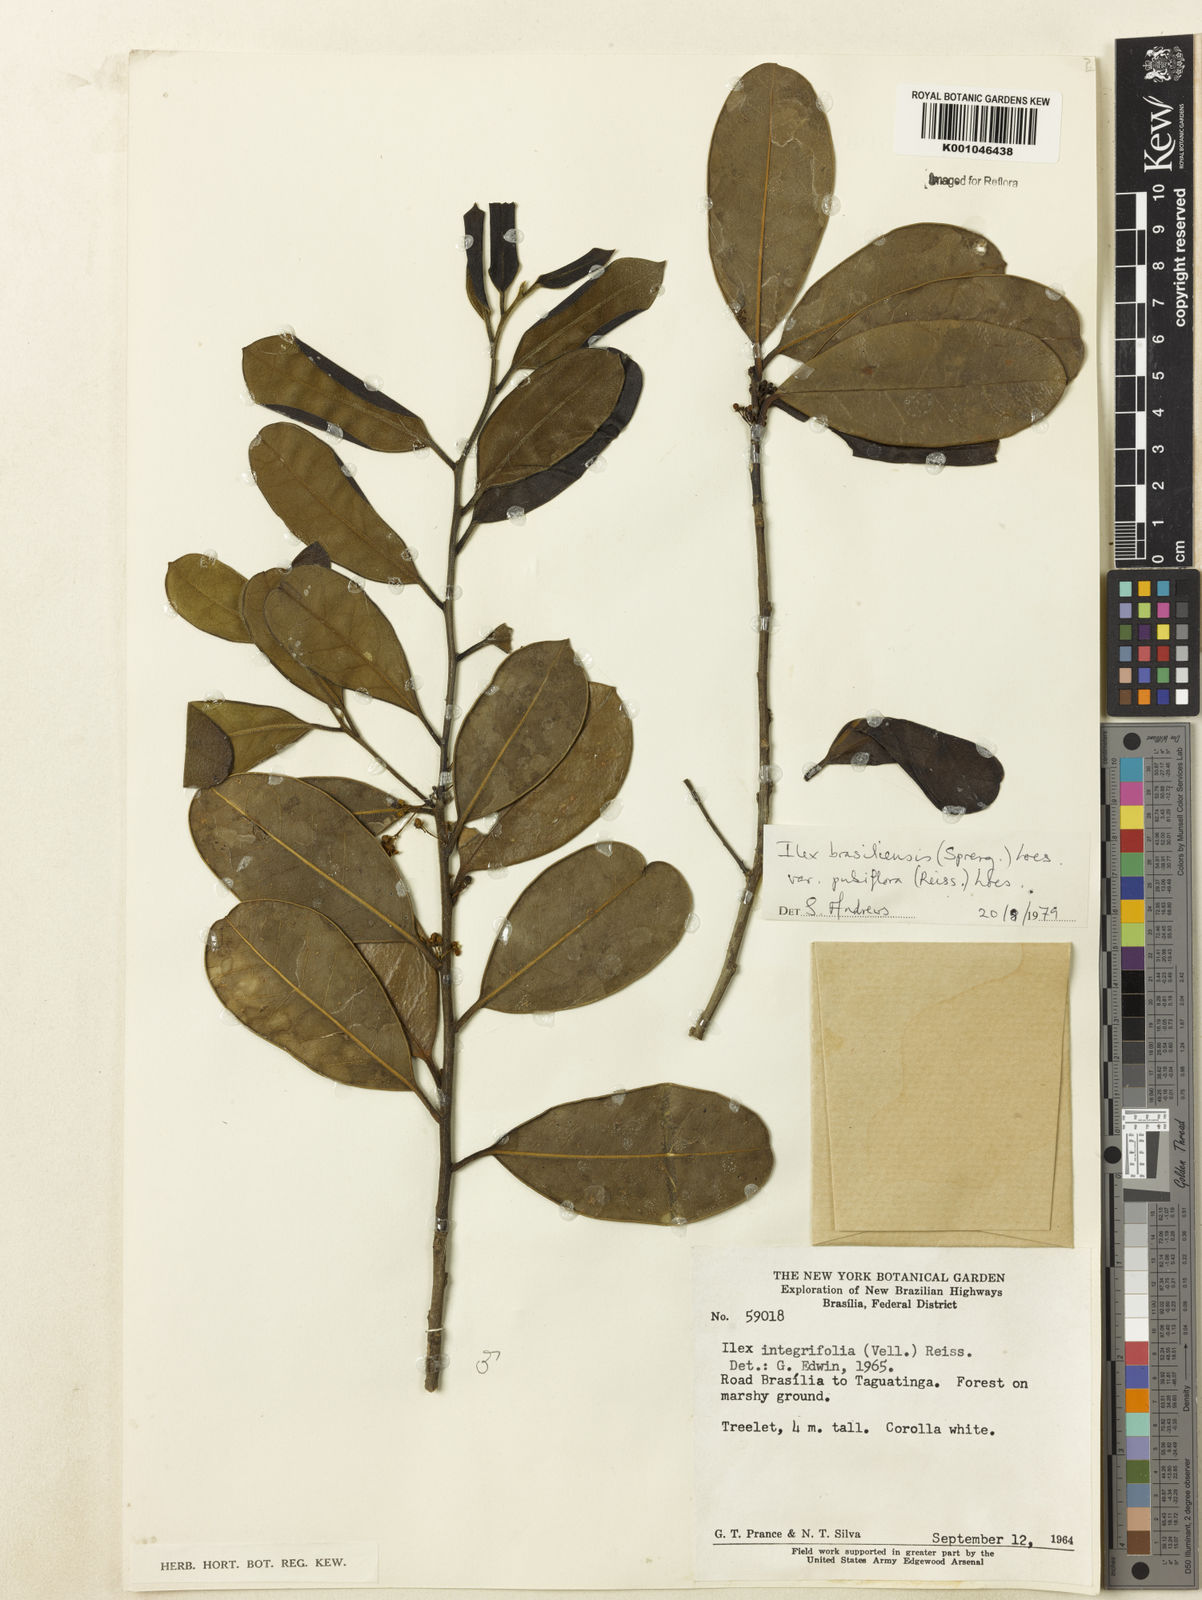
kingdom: Plantae
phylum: Tracheophyta
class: Magnoliopsida
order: Aquifoliales
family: Aquifoliaceae
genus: Ilex
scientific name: Ilex brasiliensis
